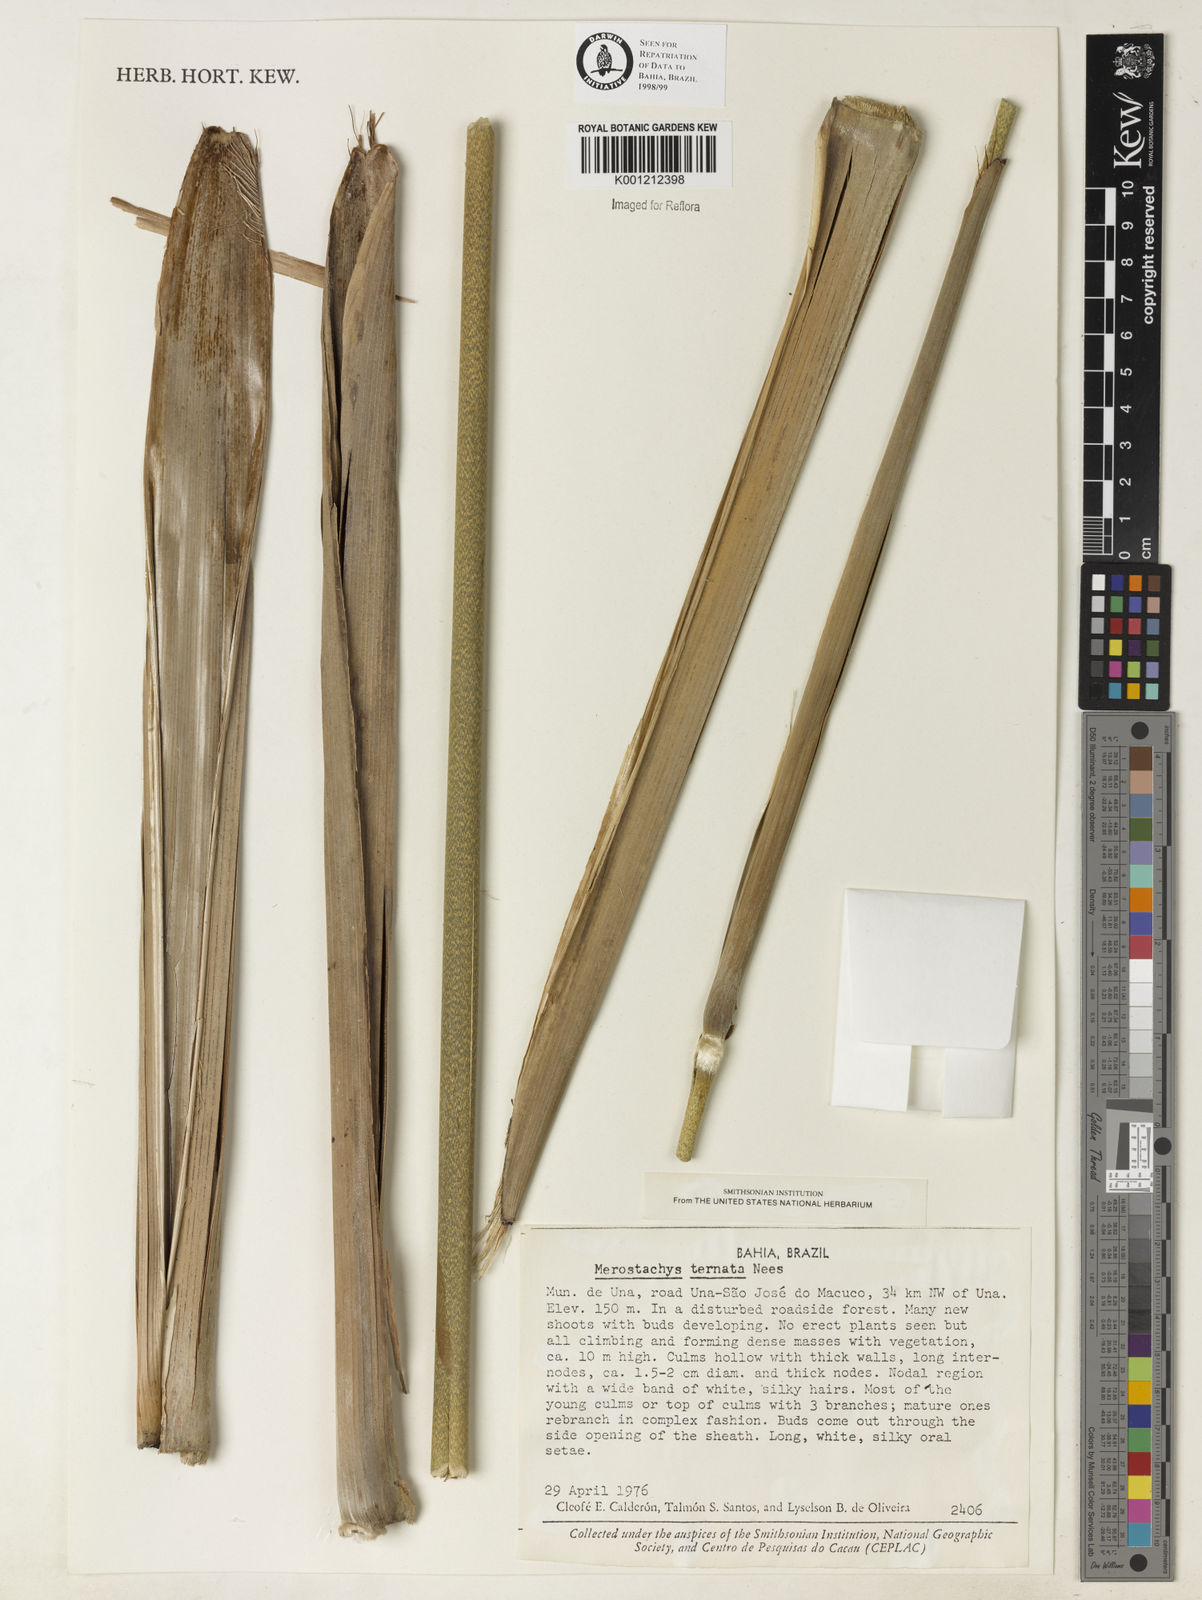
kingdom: Plantae
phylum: Tracheophyta
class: Liliopsida
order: Poales
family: Poaceae
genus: Merostachys
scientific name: Merostachys ternata
